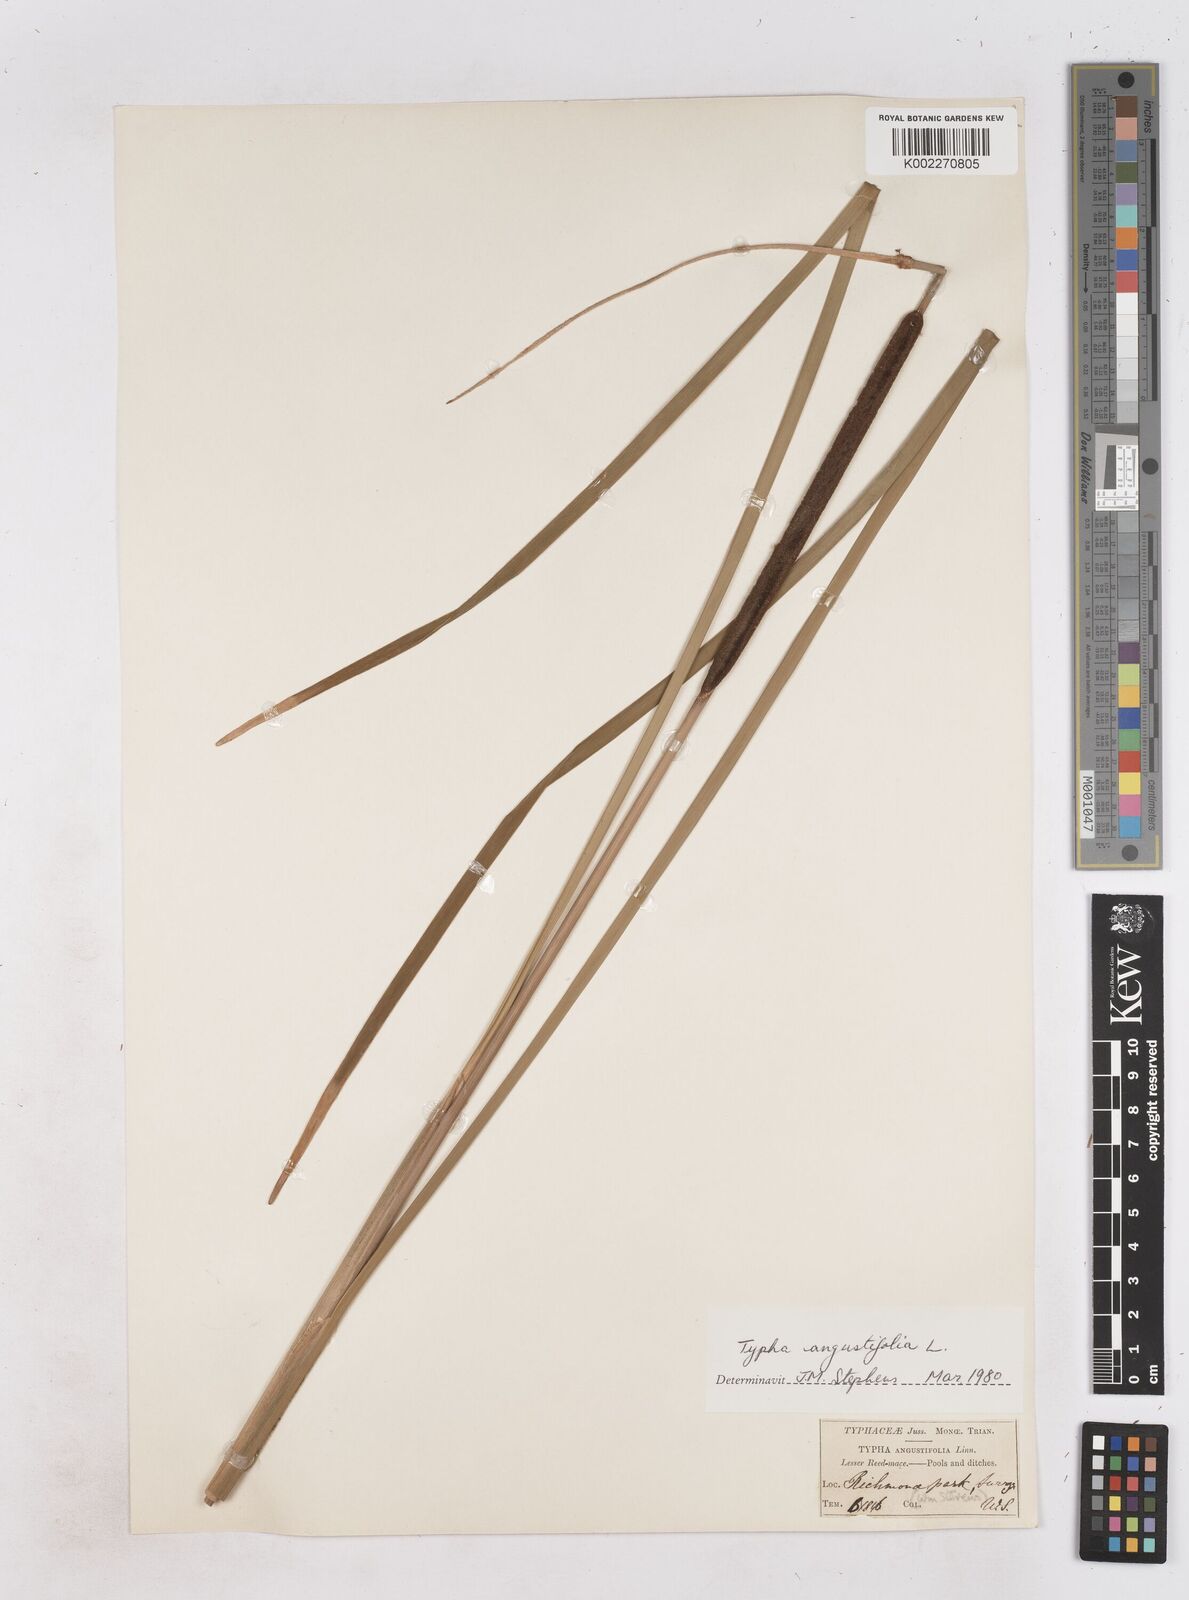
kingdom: Plantae
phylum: Tracheophyta
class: Liliopsida
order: Poales
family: Typhaceae
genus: Typha
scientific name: Typha angustifolia
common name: Lesser bulrush
